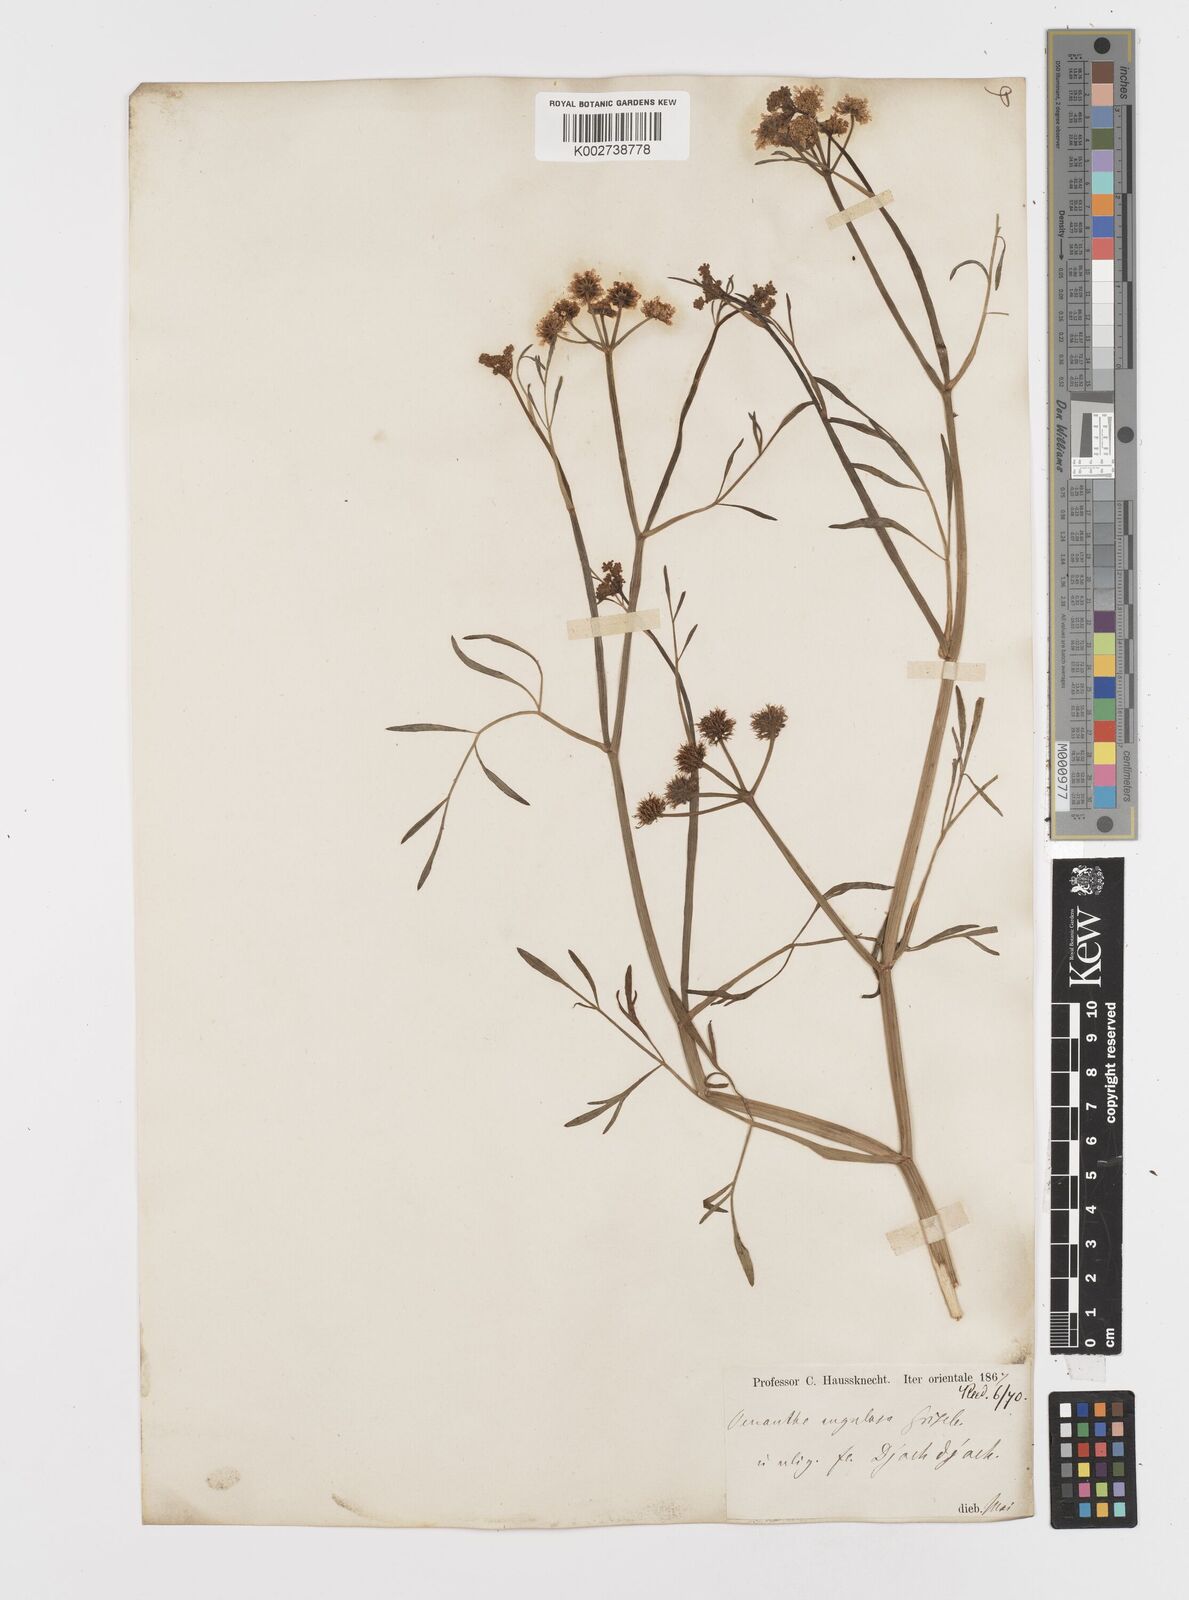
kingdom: Plantae
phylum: Tracheophyta
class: Magnoliopsida
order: Apiales
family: Apiaceae
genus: Oenanthe
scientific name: Oenanthe pimpinelloides
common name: Corky-fruited water-dropwort
